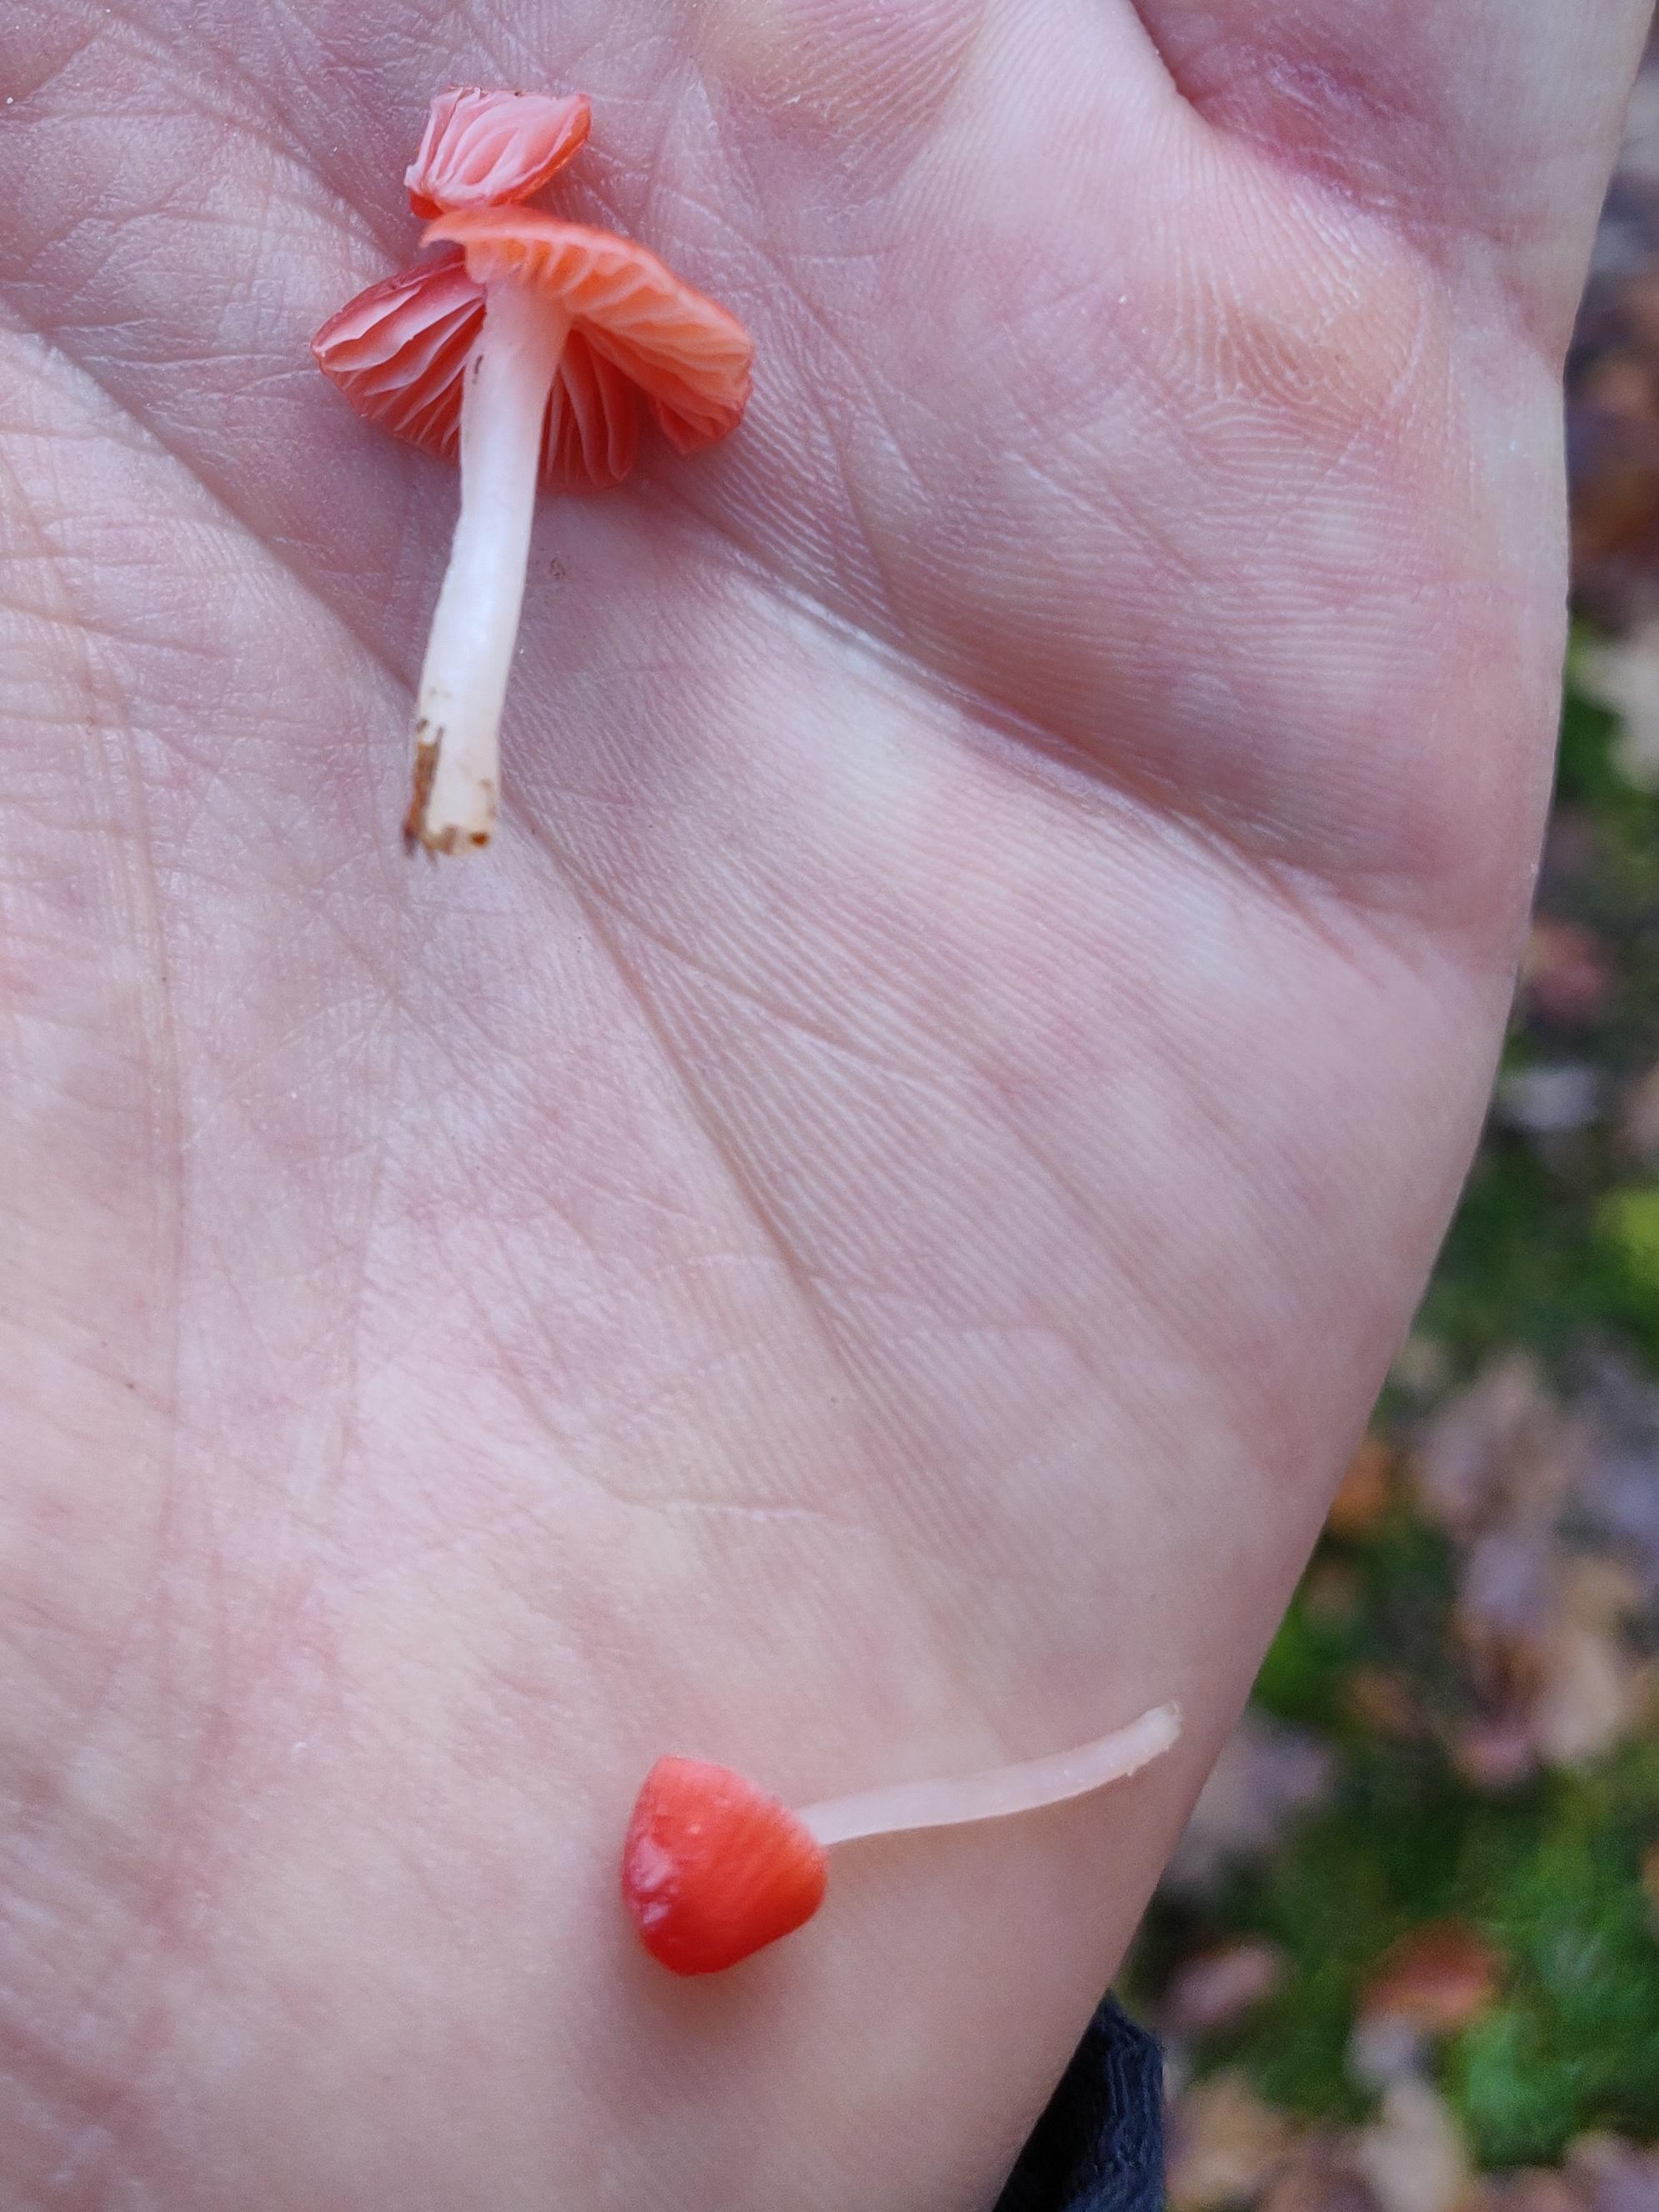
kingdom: Fungi
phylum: Basidiomycota
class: Agaricomycetes
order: Agaricales
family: Mycenaceae
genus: Atheniella
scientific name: Atheniella adonis
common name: rønnerød huesvamp
